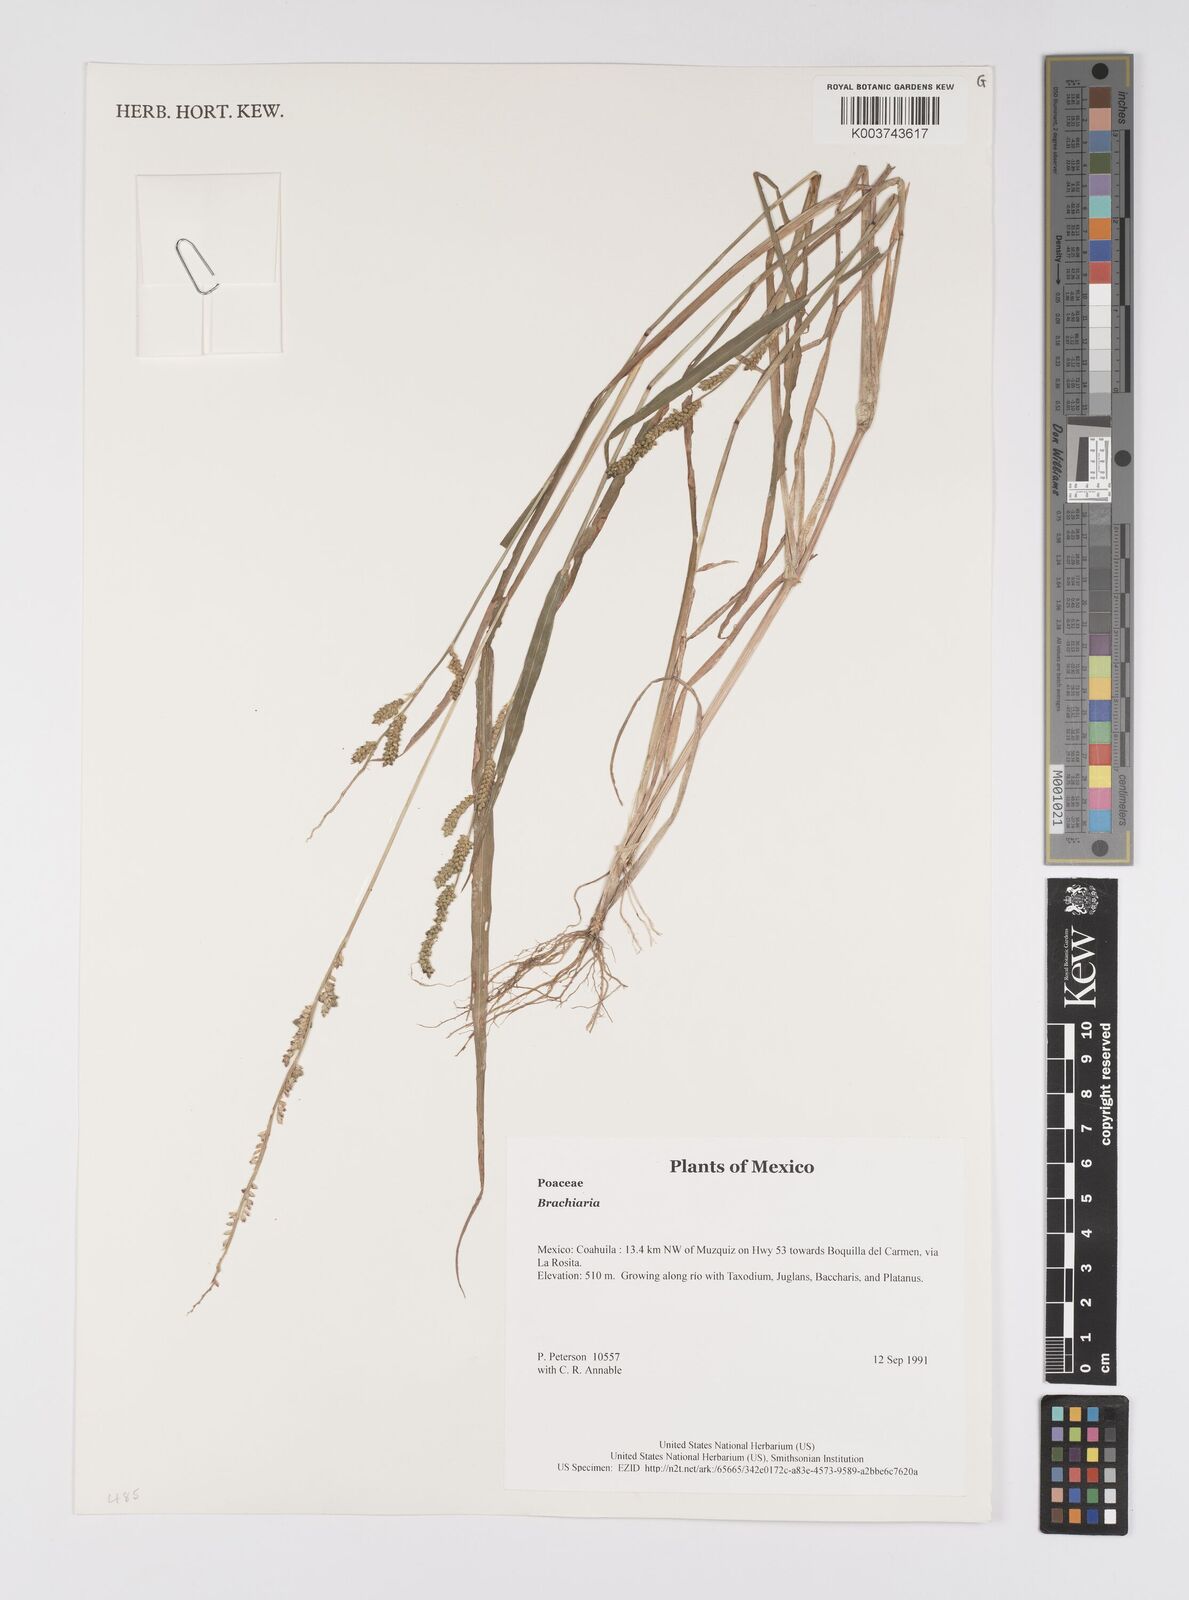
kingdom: Plantae
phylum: Tracheophyta
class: Liliopsida
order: Poales
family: Poaceae
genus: Brachiaria
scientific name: Brachiaria
